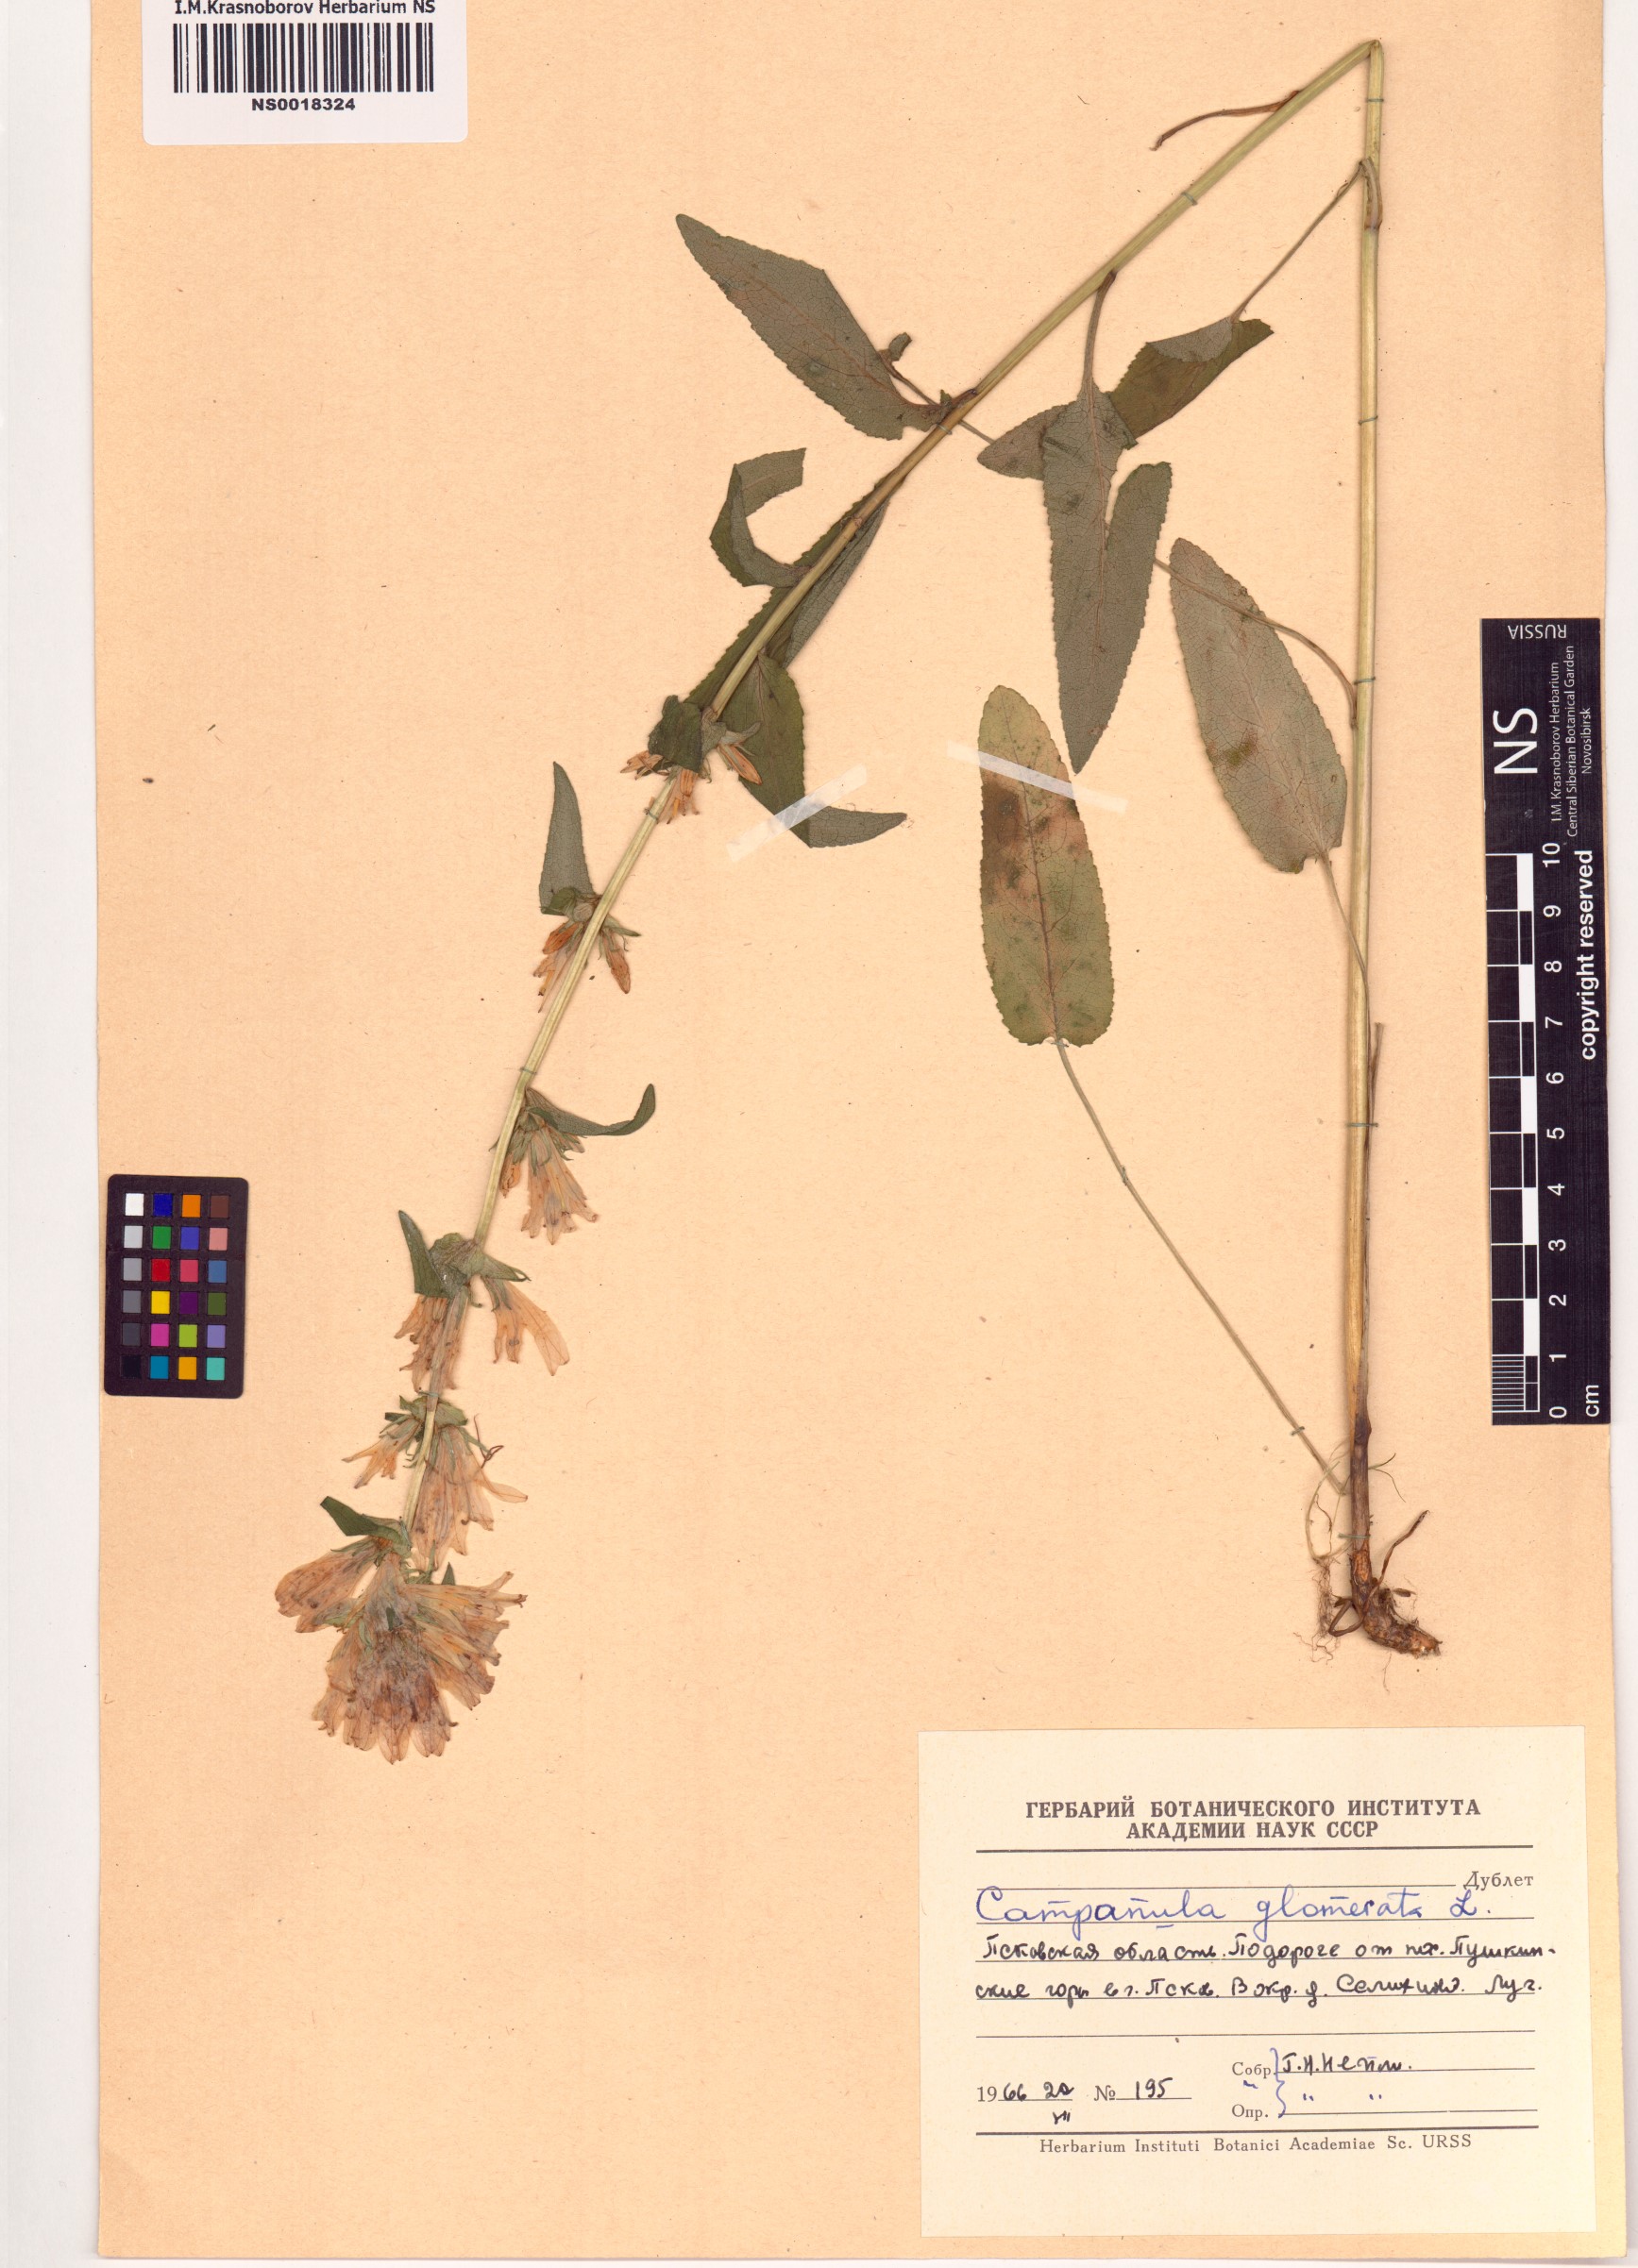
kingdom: Plantae
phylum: Tracheophyta
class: Magnoliopsida
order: Asterales
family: Campanulaceae
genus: Campanula
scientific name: Campanula glomerata
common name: Clustered bellflower
